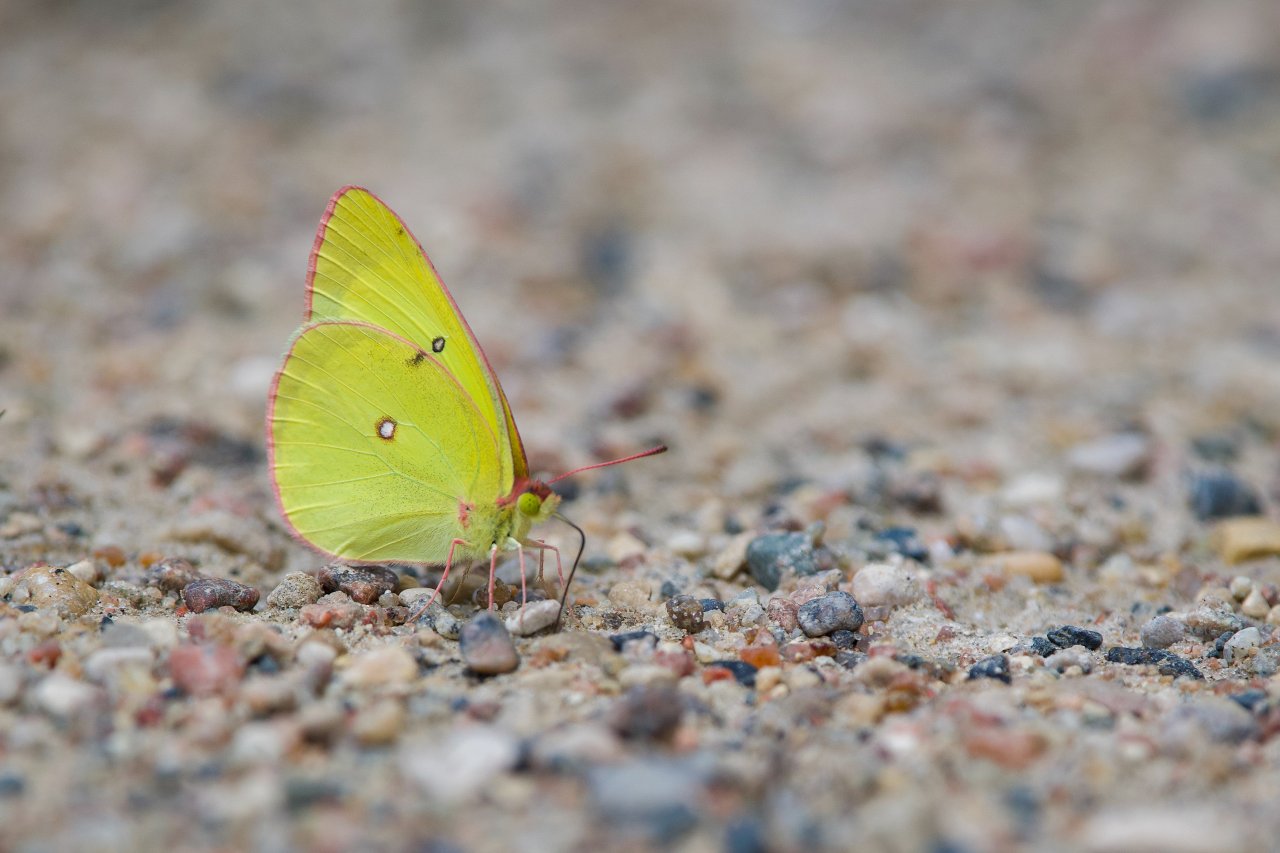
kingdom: Animalia
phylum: Arthropoda
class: Insecta
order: Lepidoptera
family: Pieridae
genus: Colias
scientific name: Colias interior
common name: Pink-edged Sulphur
